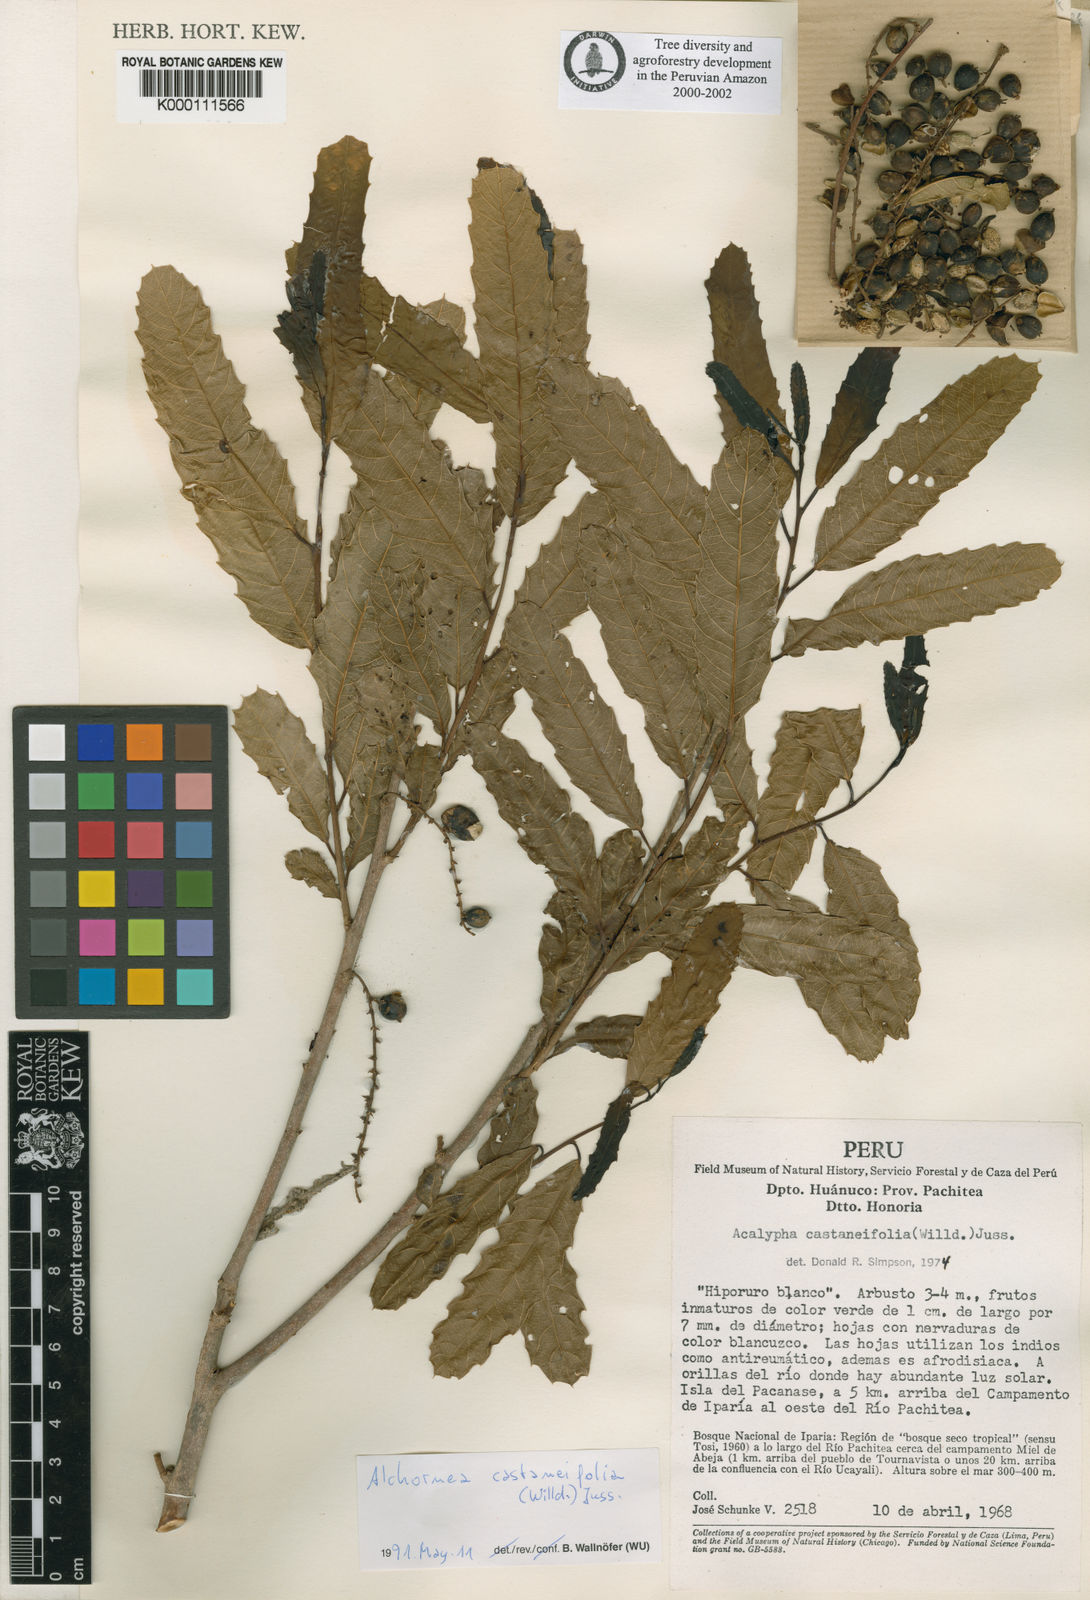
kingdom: Plantae
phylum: Tracheophyta
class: Magnoliopsida
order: Malpighiales
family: Euphorbiaceae
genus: Alchornea
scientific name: Alchornea castaneifolia
